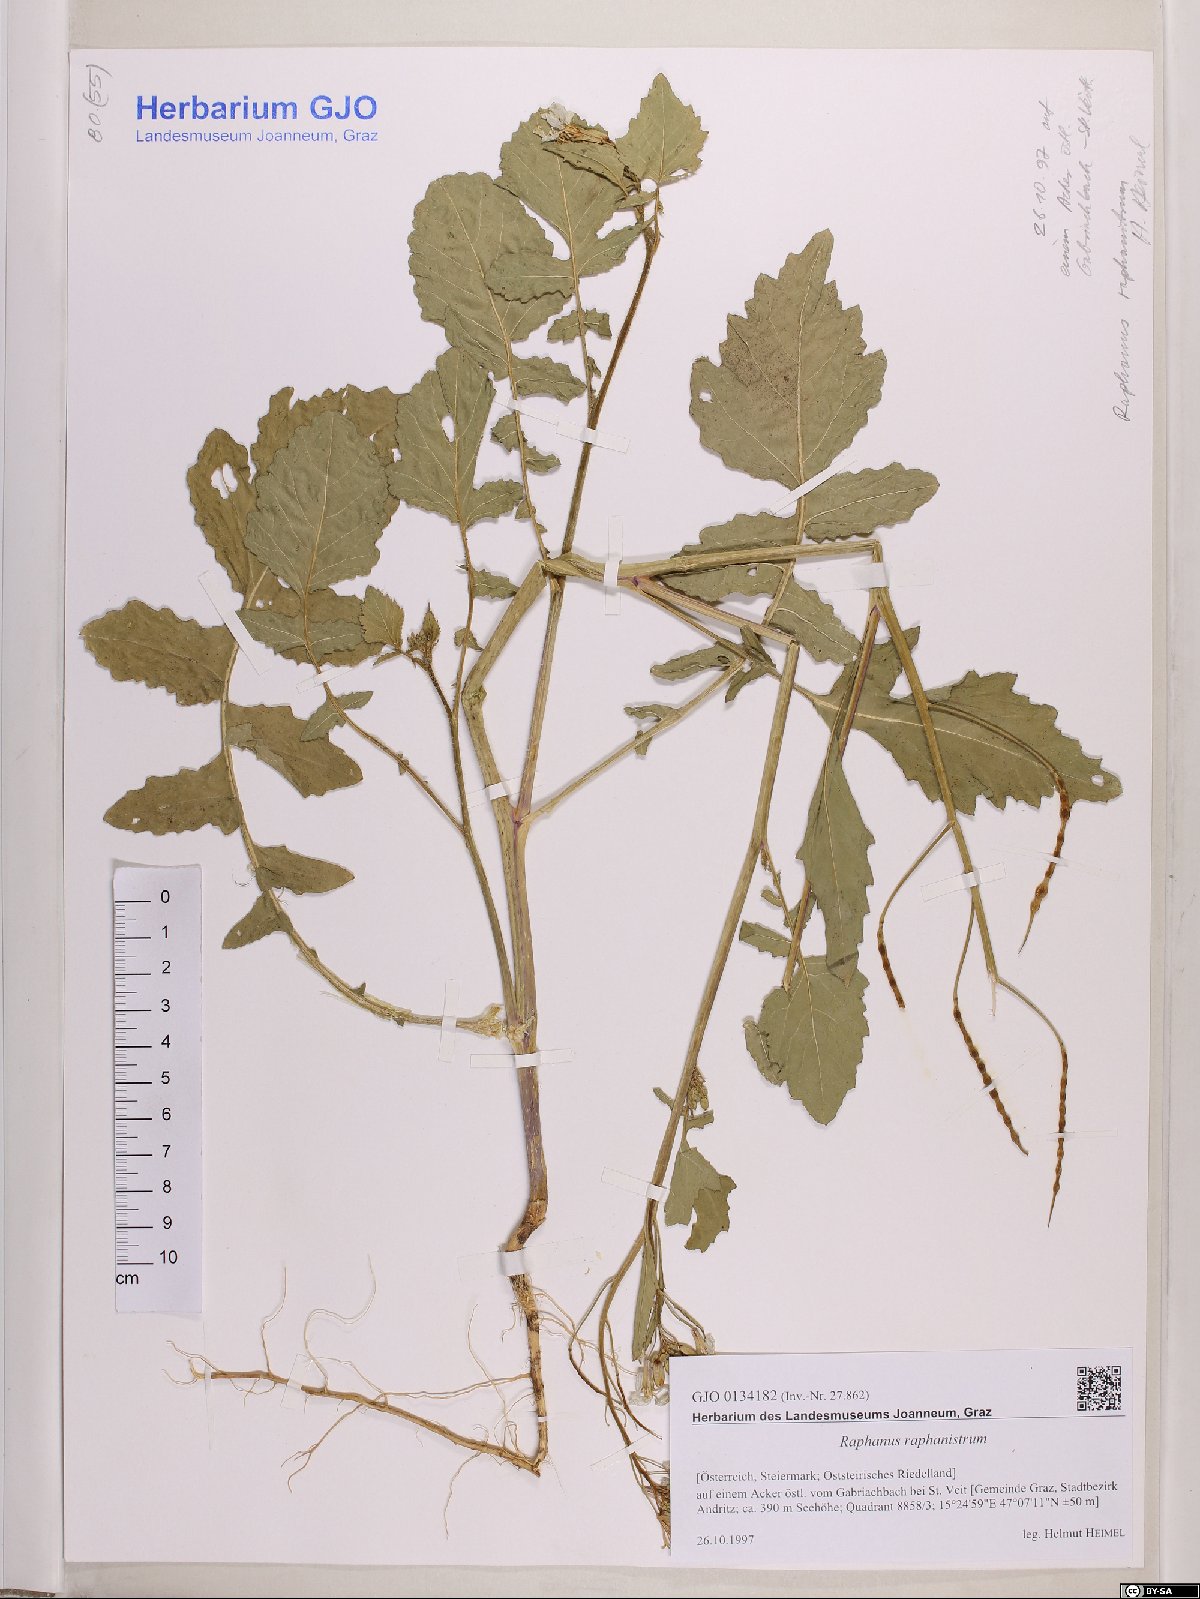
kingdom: Plantae
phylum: Tracheophyta
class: Magnoliopsida
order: Brassicales
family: Brassicaceae
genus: Raphanus
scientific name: Raphanus raphanistrum
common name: Wild radish
